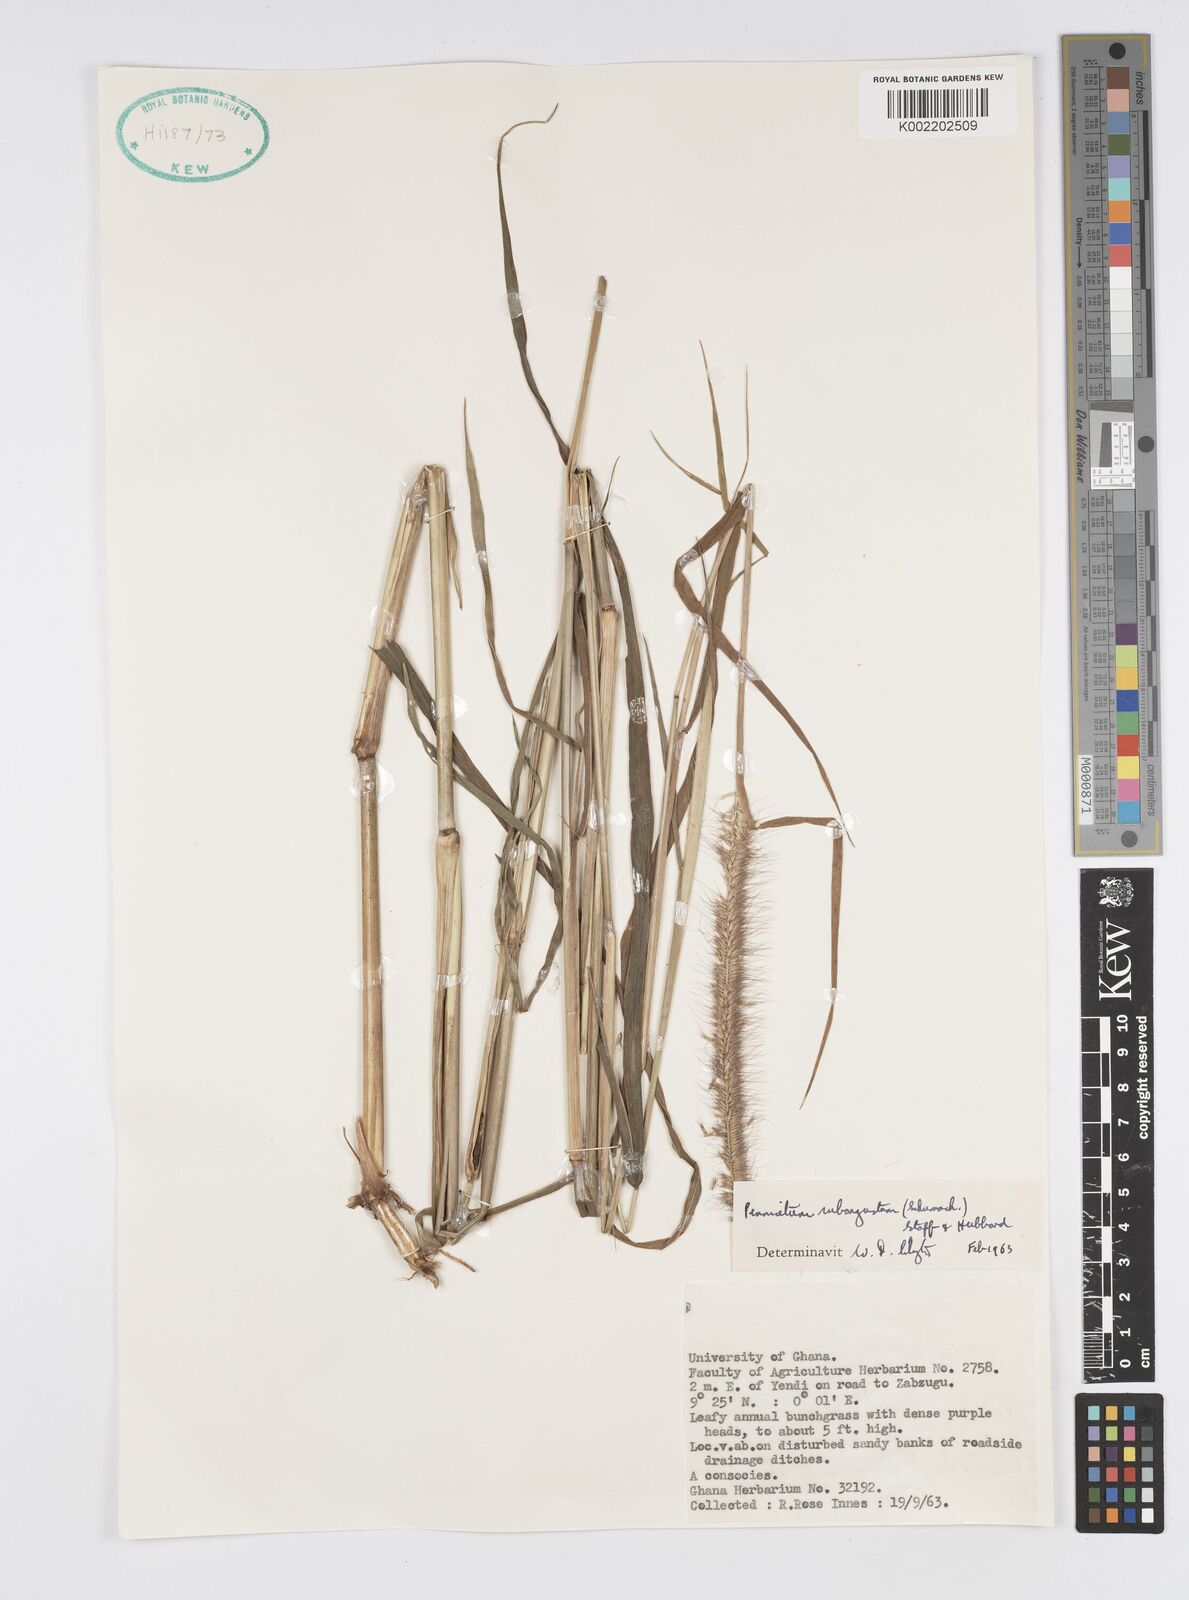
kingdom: Plantae
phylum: Tracheophyta
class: Liliopsida
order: Poales
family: Poaceae
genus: Setaria
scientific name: Setaria parviflora
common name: Knotroot bristle-grass
